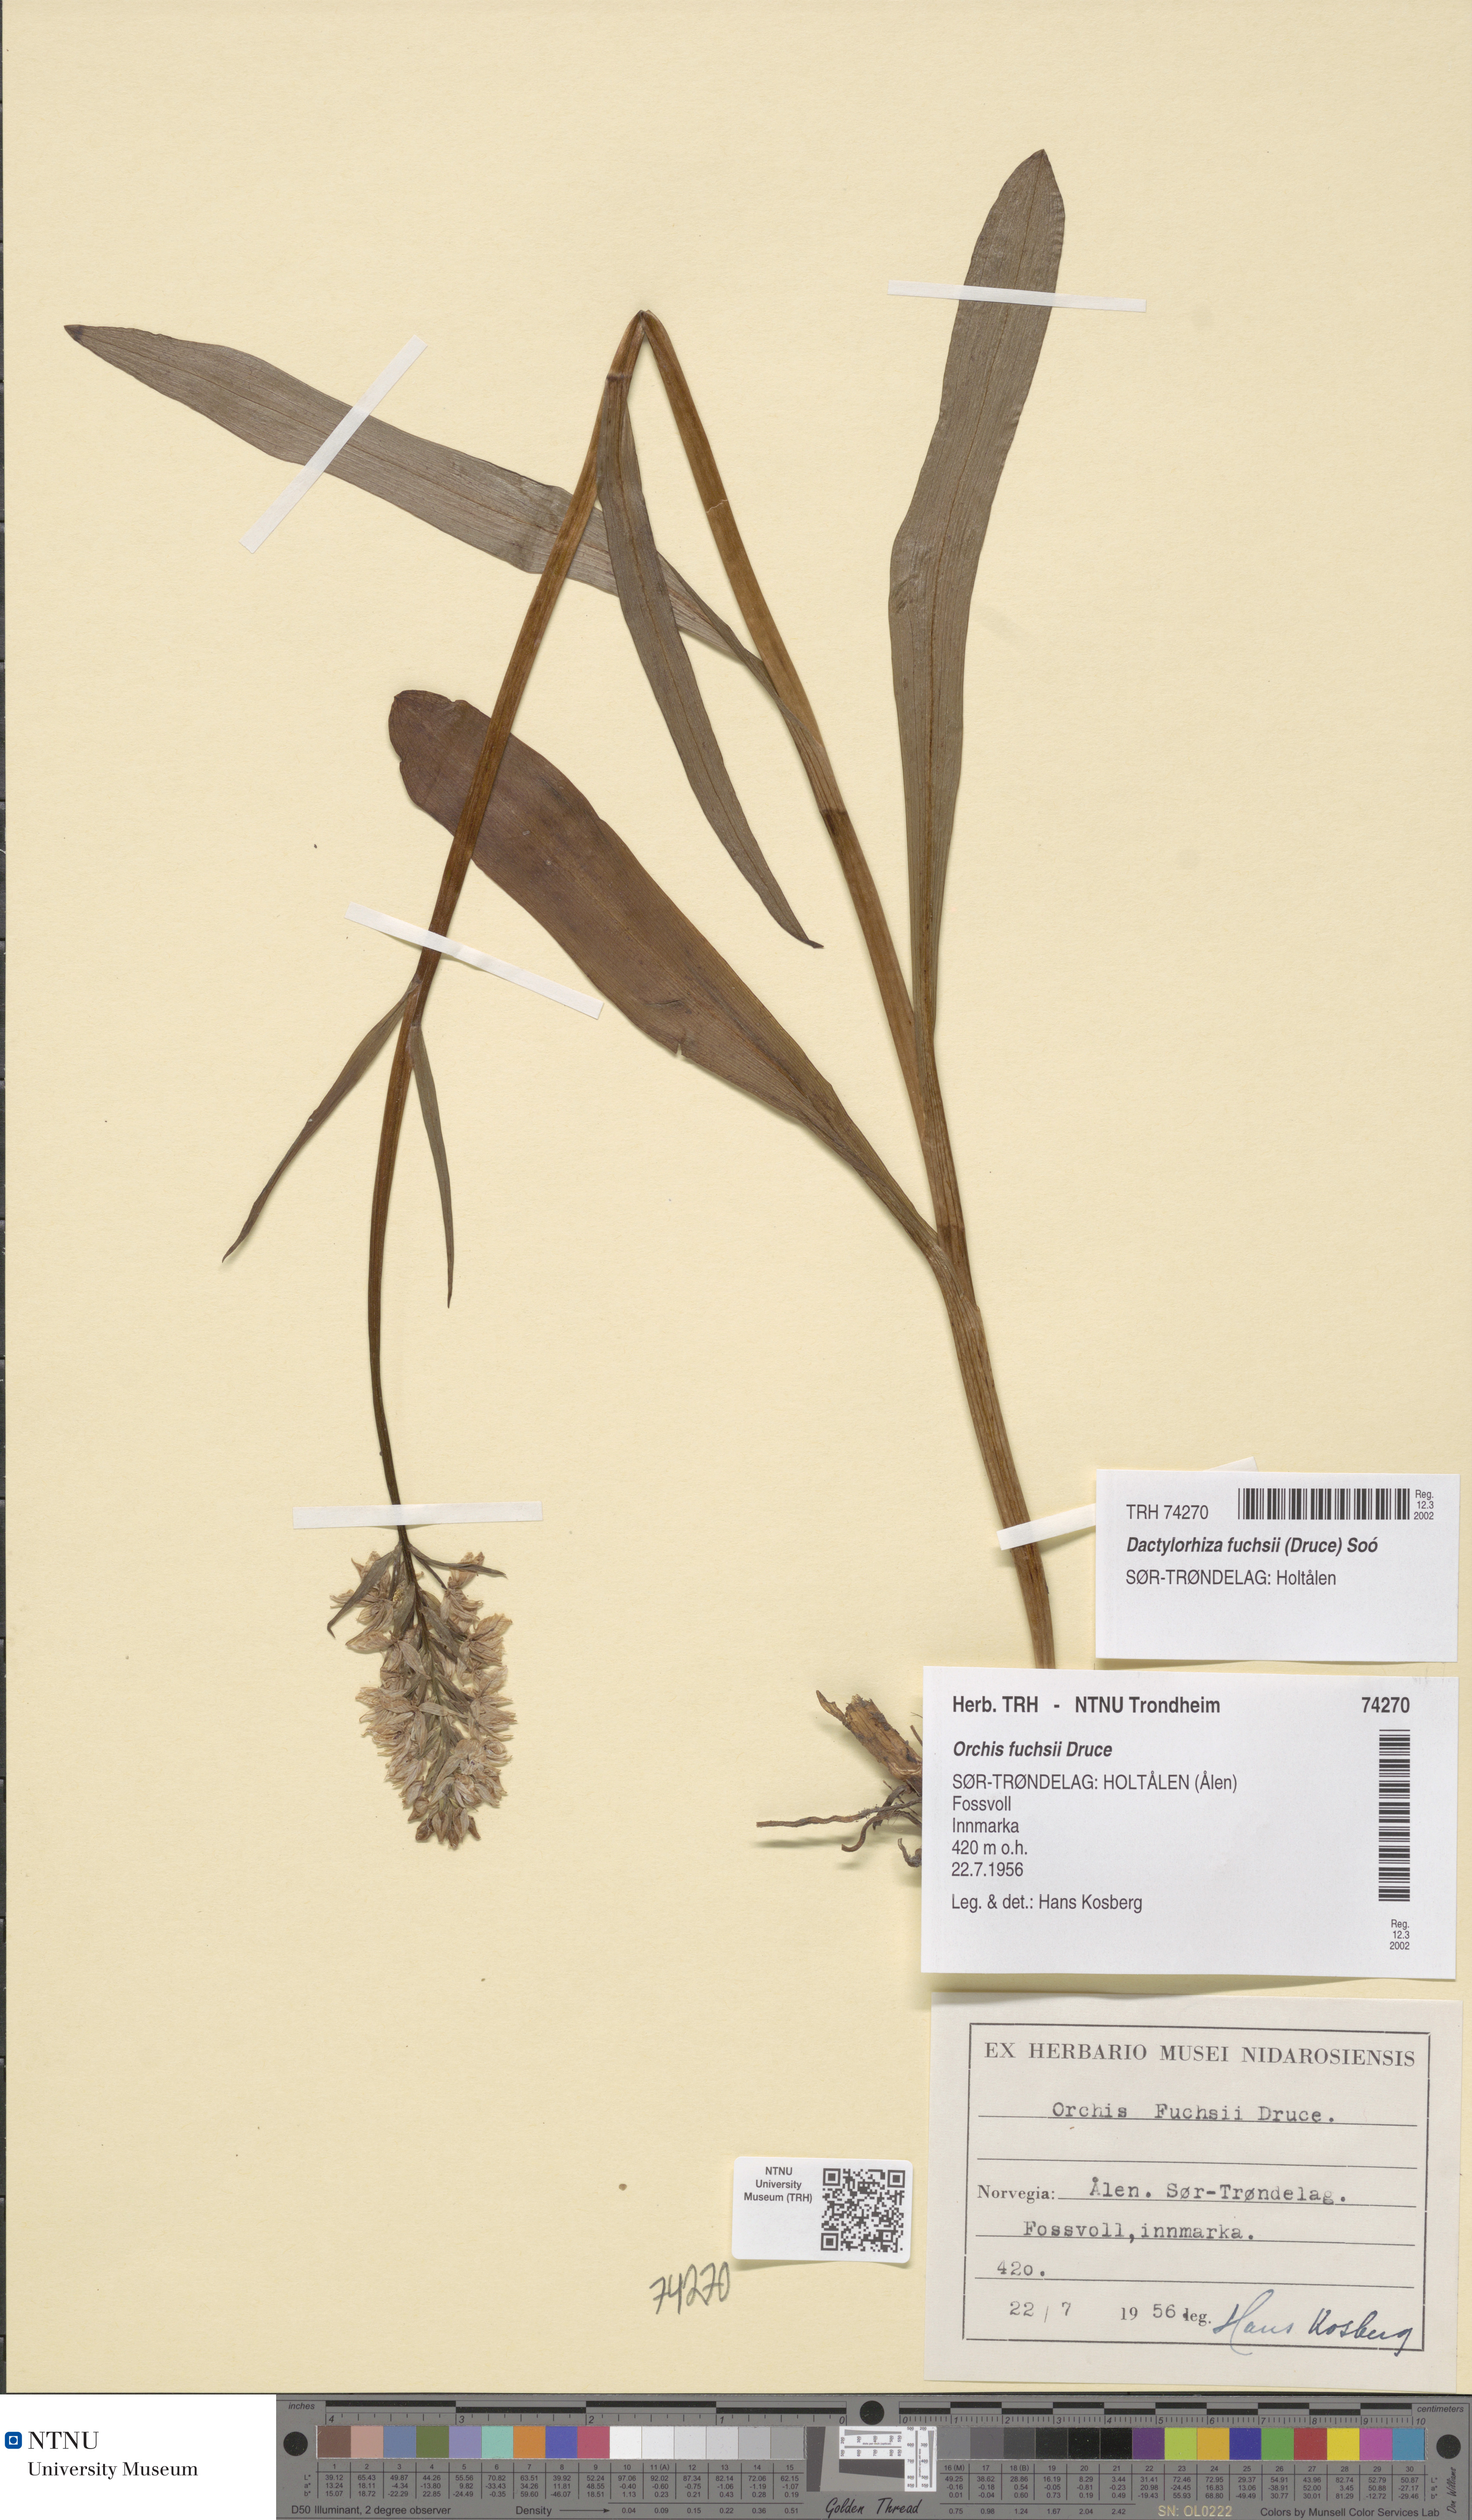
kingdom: Plantae
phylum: Tracheophyta
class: Liliopsida
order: Asparagales
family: Orchidaceae
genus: Dactylorhiza
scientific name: Dactylorhiza maculata
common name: Heath spotted-orchid
